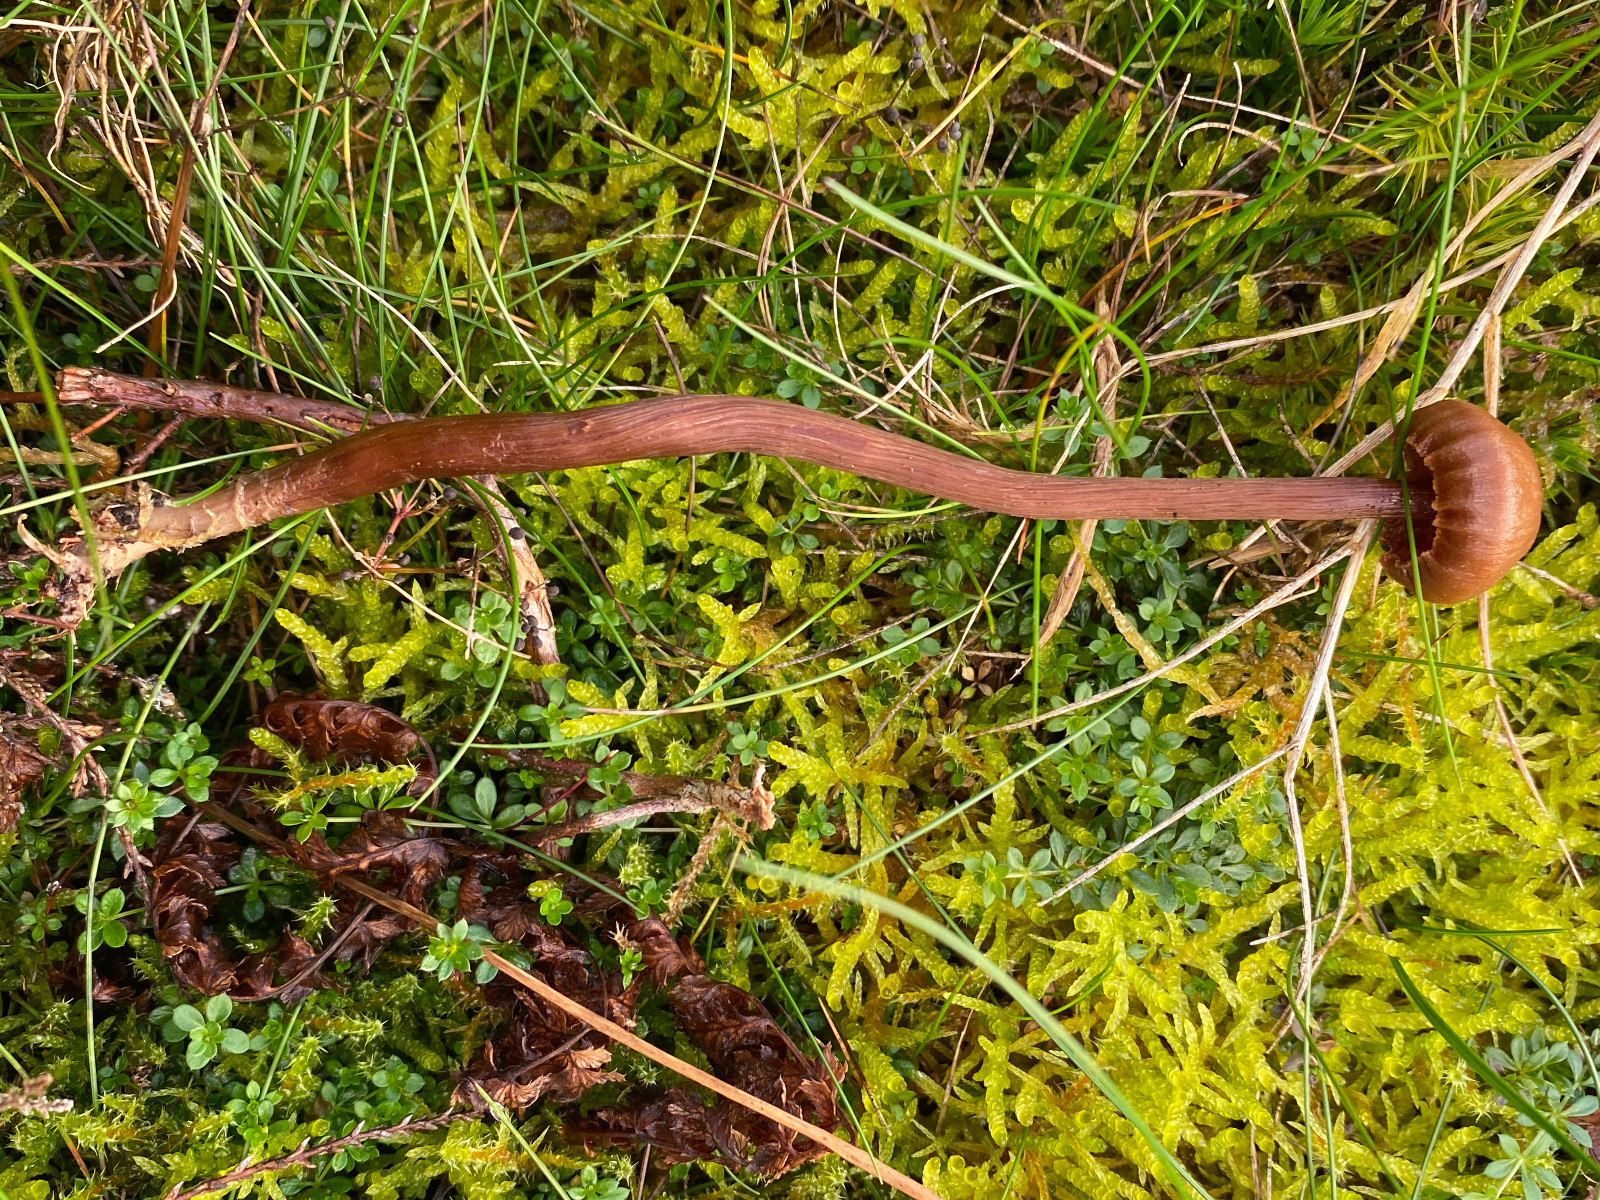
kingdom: Fungi
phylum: Basidiomycota
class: Agaricomycetes
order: Agaricales
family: Hydnangiaceae
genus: Laccaria
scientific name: Laccaria proxima
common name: stor ametysthat
